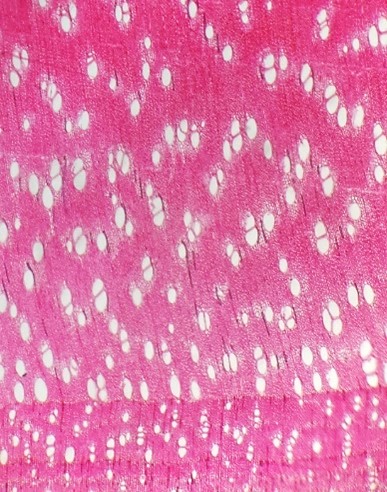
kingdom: Plantae
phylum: Tracheophyta
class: Magnoliopsida
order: Fabales
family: Fabaceae
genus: Geoffroea
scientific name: Geoffroea decorticans
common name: Chañar
